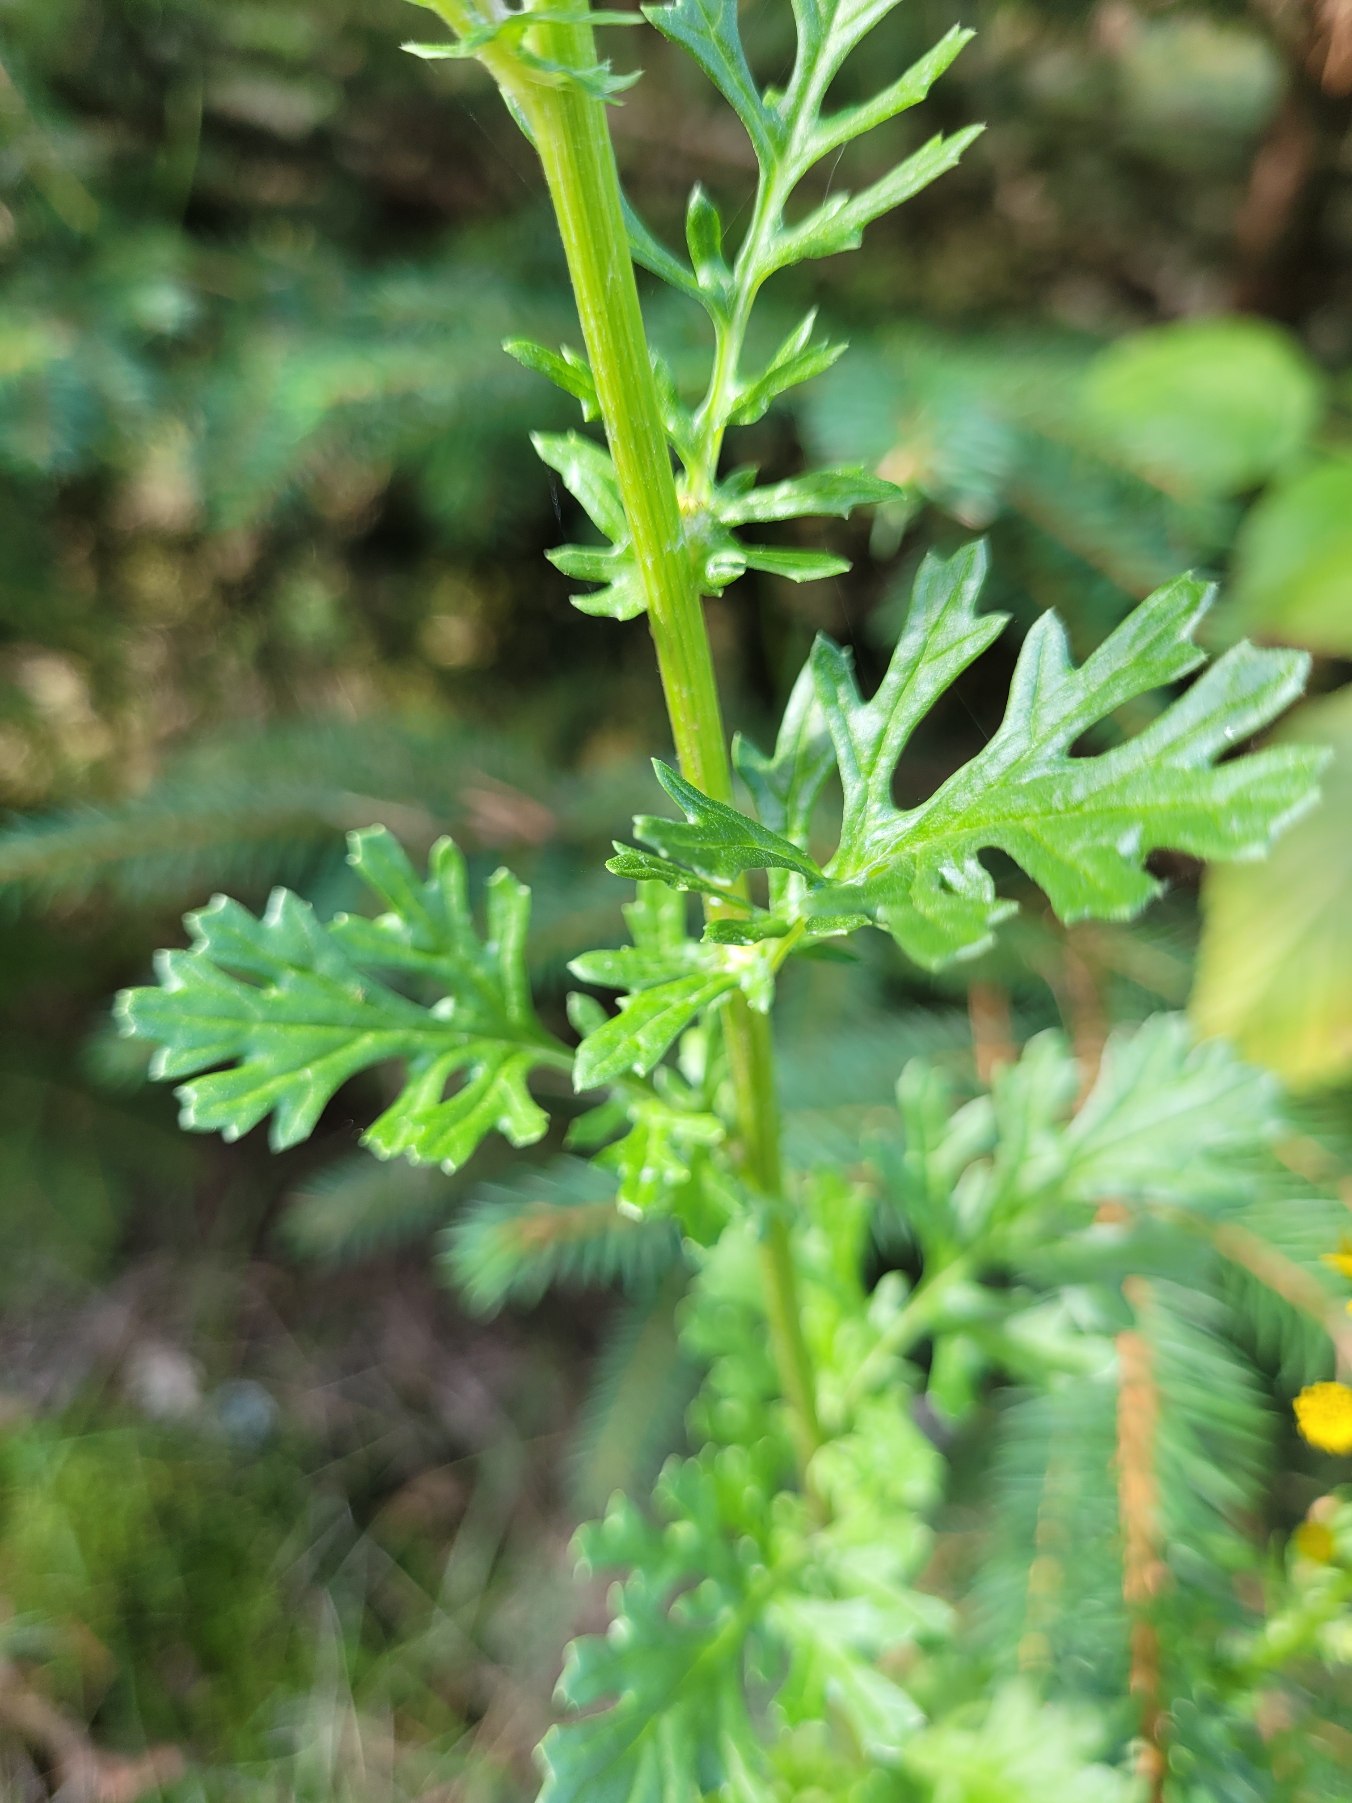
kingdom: Plantae
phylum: Tracheophyta
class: Magnoliopsida
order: Asterales
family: Asteraceae
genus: Jacobaea
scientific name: Jacobaea vulgaris
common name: Eng-brandbæger
